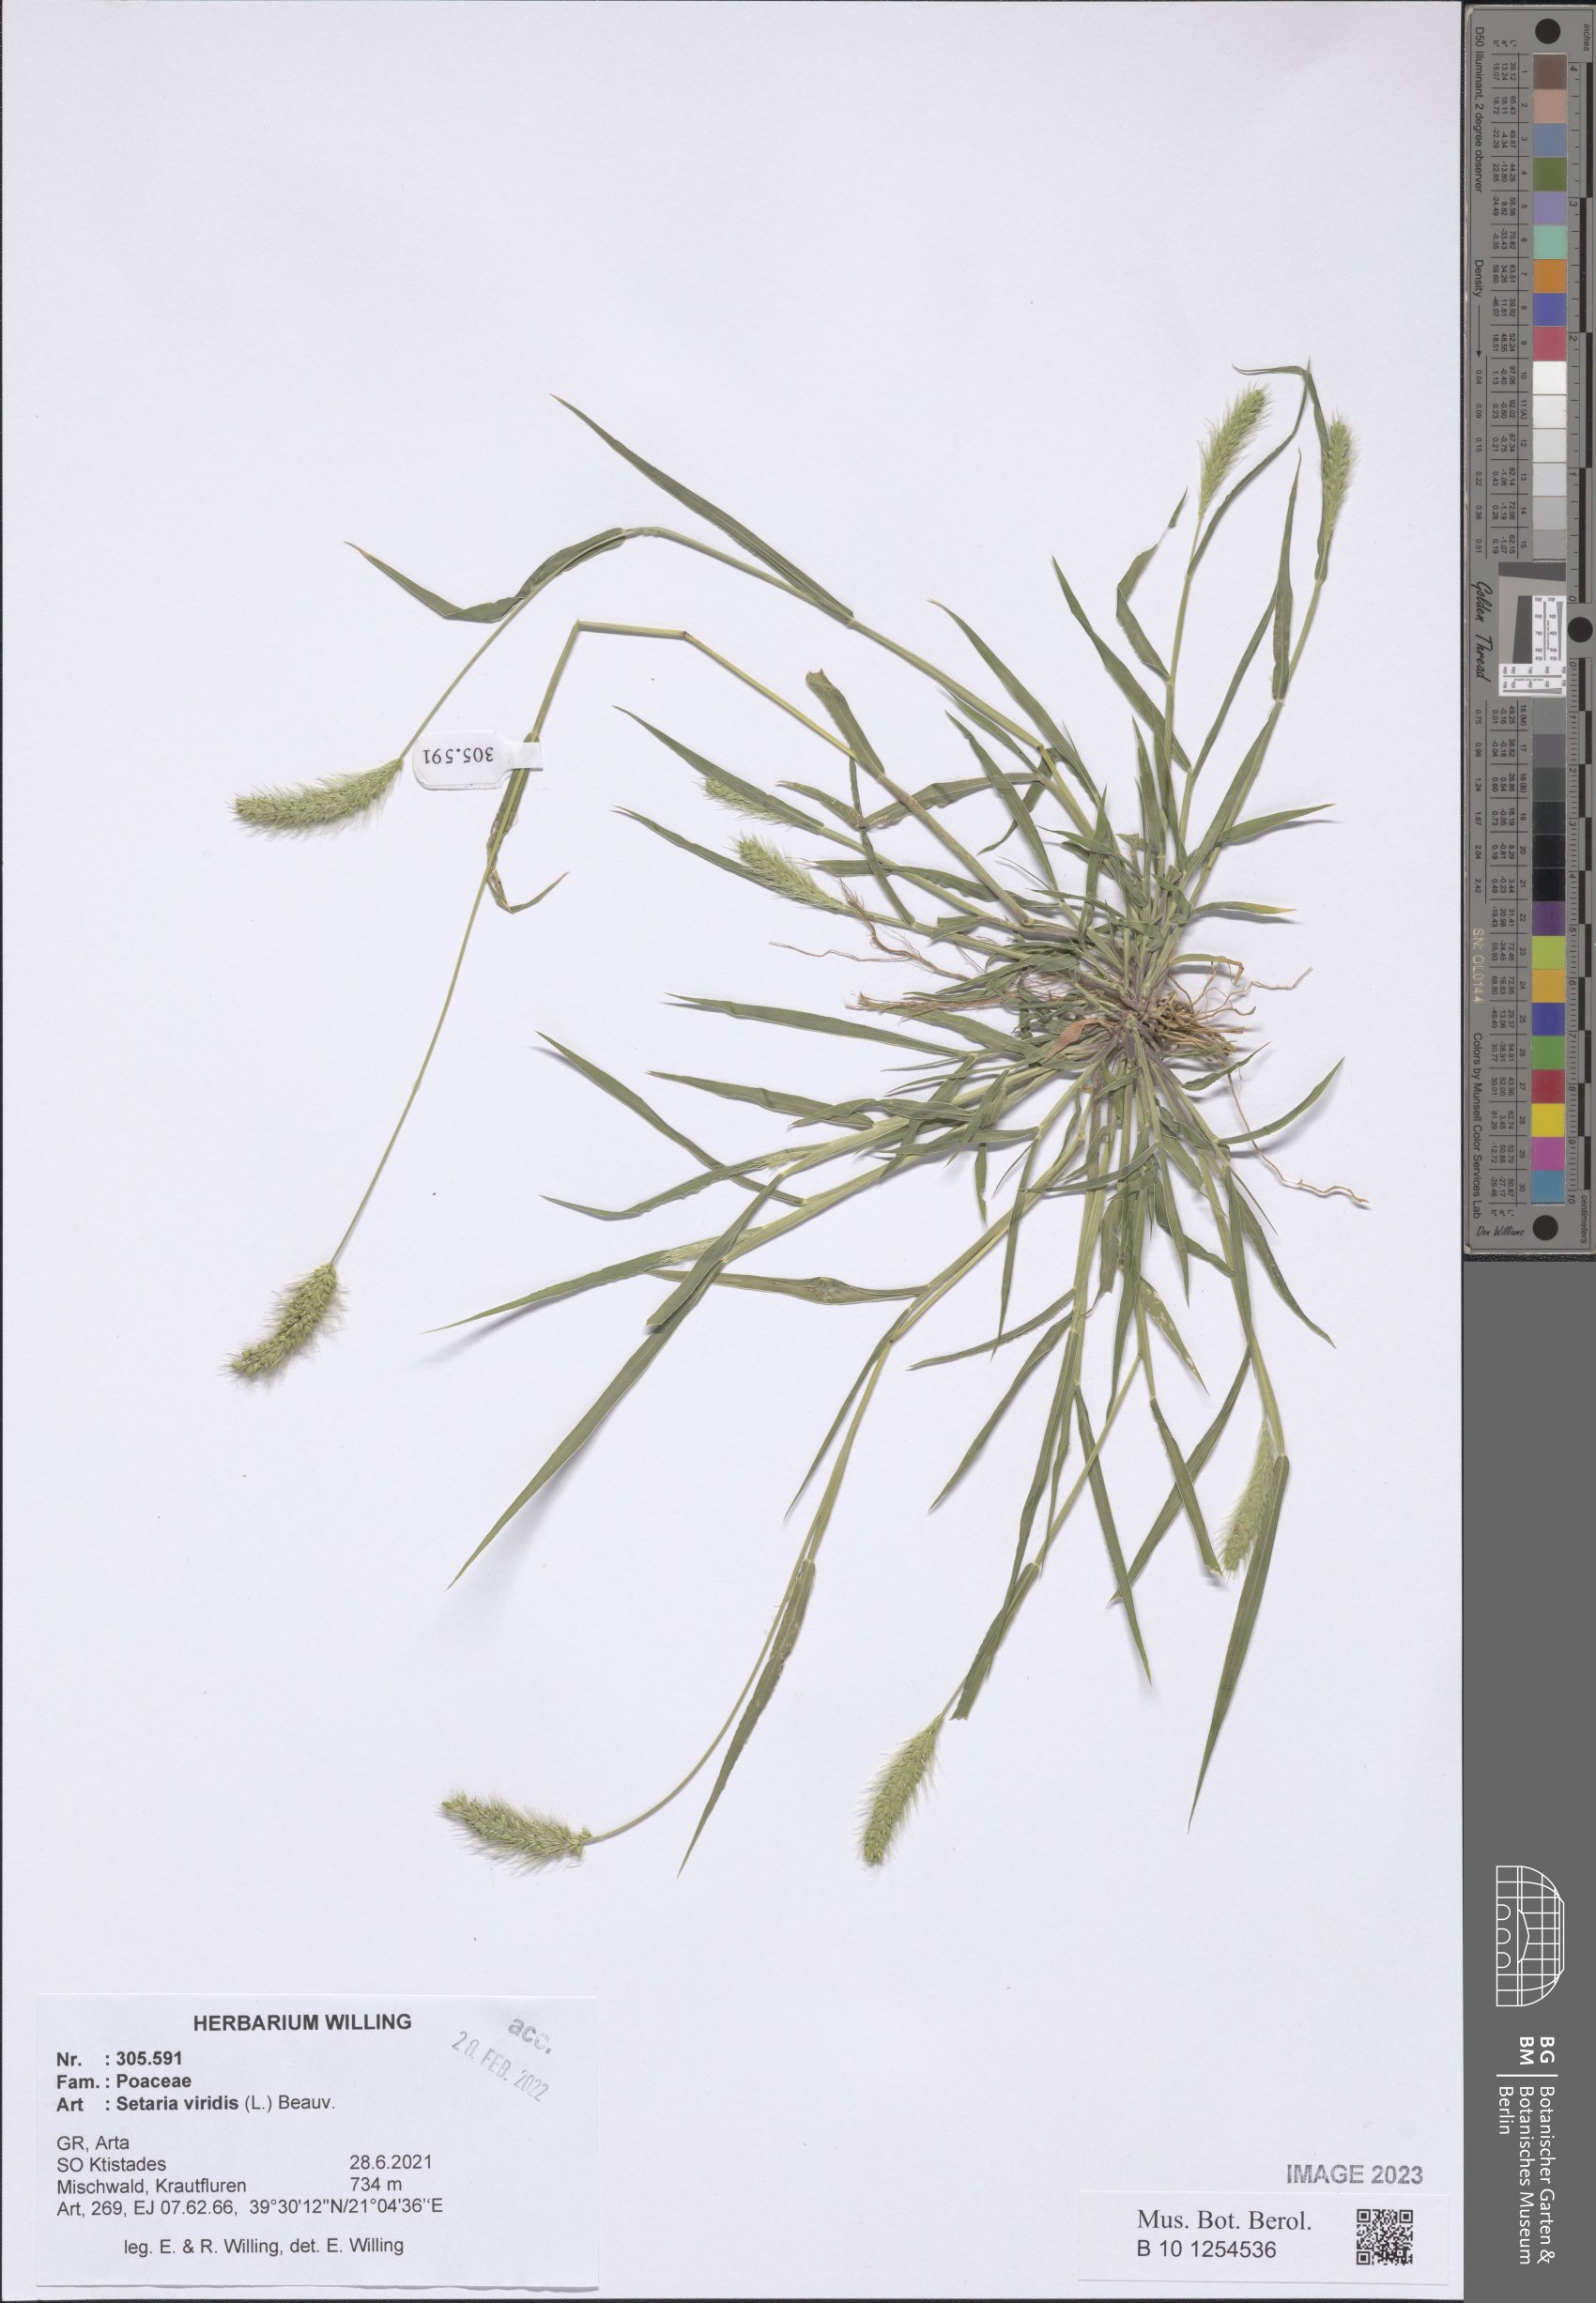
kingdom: Plantae
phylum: Tracheophyta
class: Liliopsida
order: Poales
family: Poaceae
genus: Setaria
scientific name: Setaria viridis
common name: Green bristlegrass
